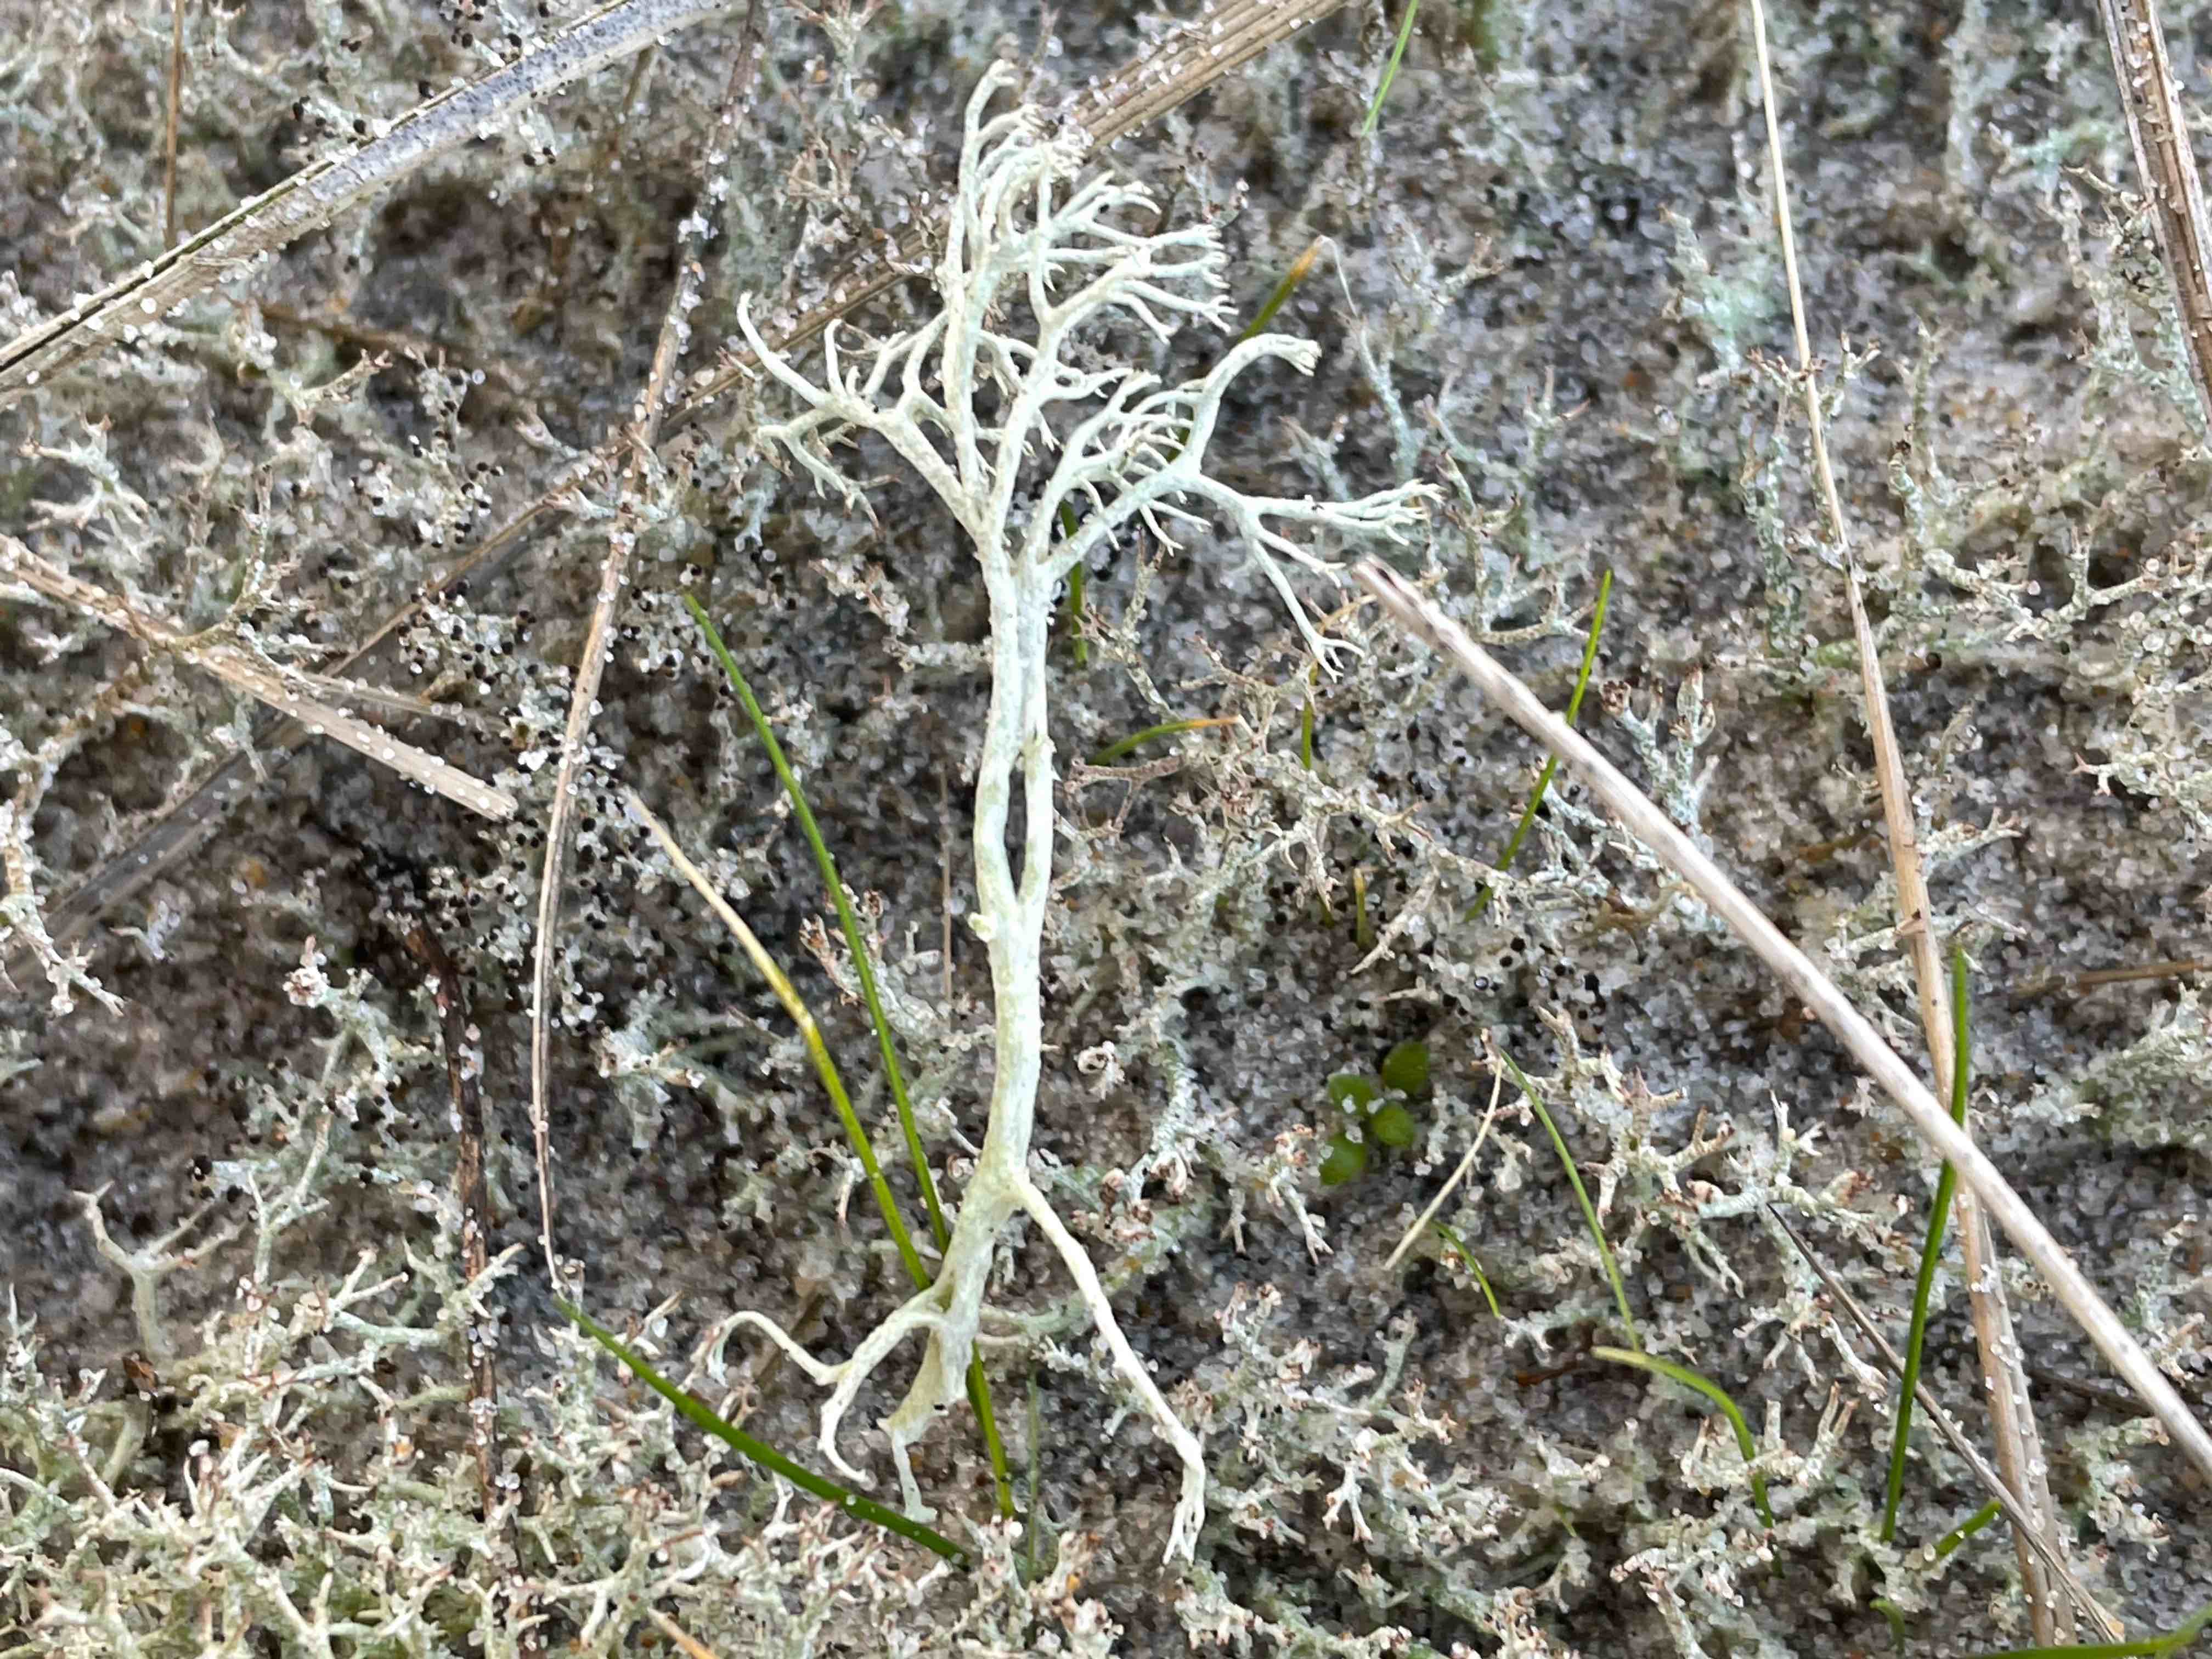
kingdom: Fungi
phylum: Ascomycota
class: Lecanoromycetes
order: Lecanorales
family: Cladoniaceae
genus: Cladonia
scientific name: Cladonia arbuscula
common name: gulhvid rensdyrlav
